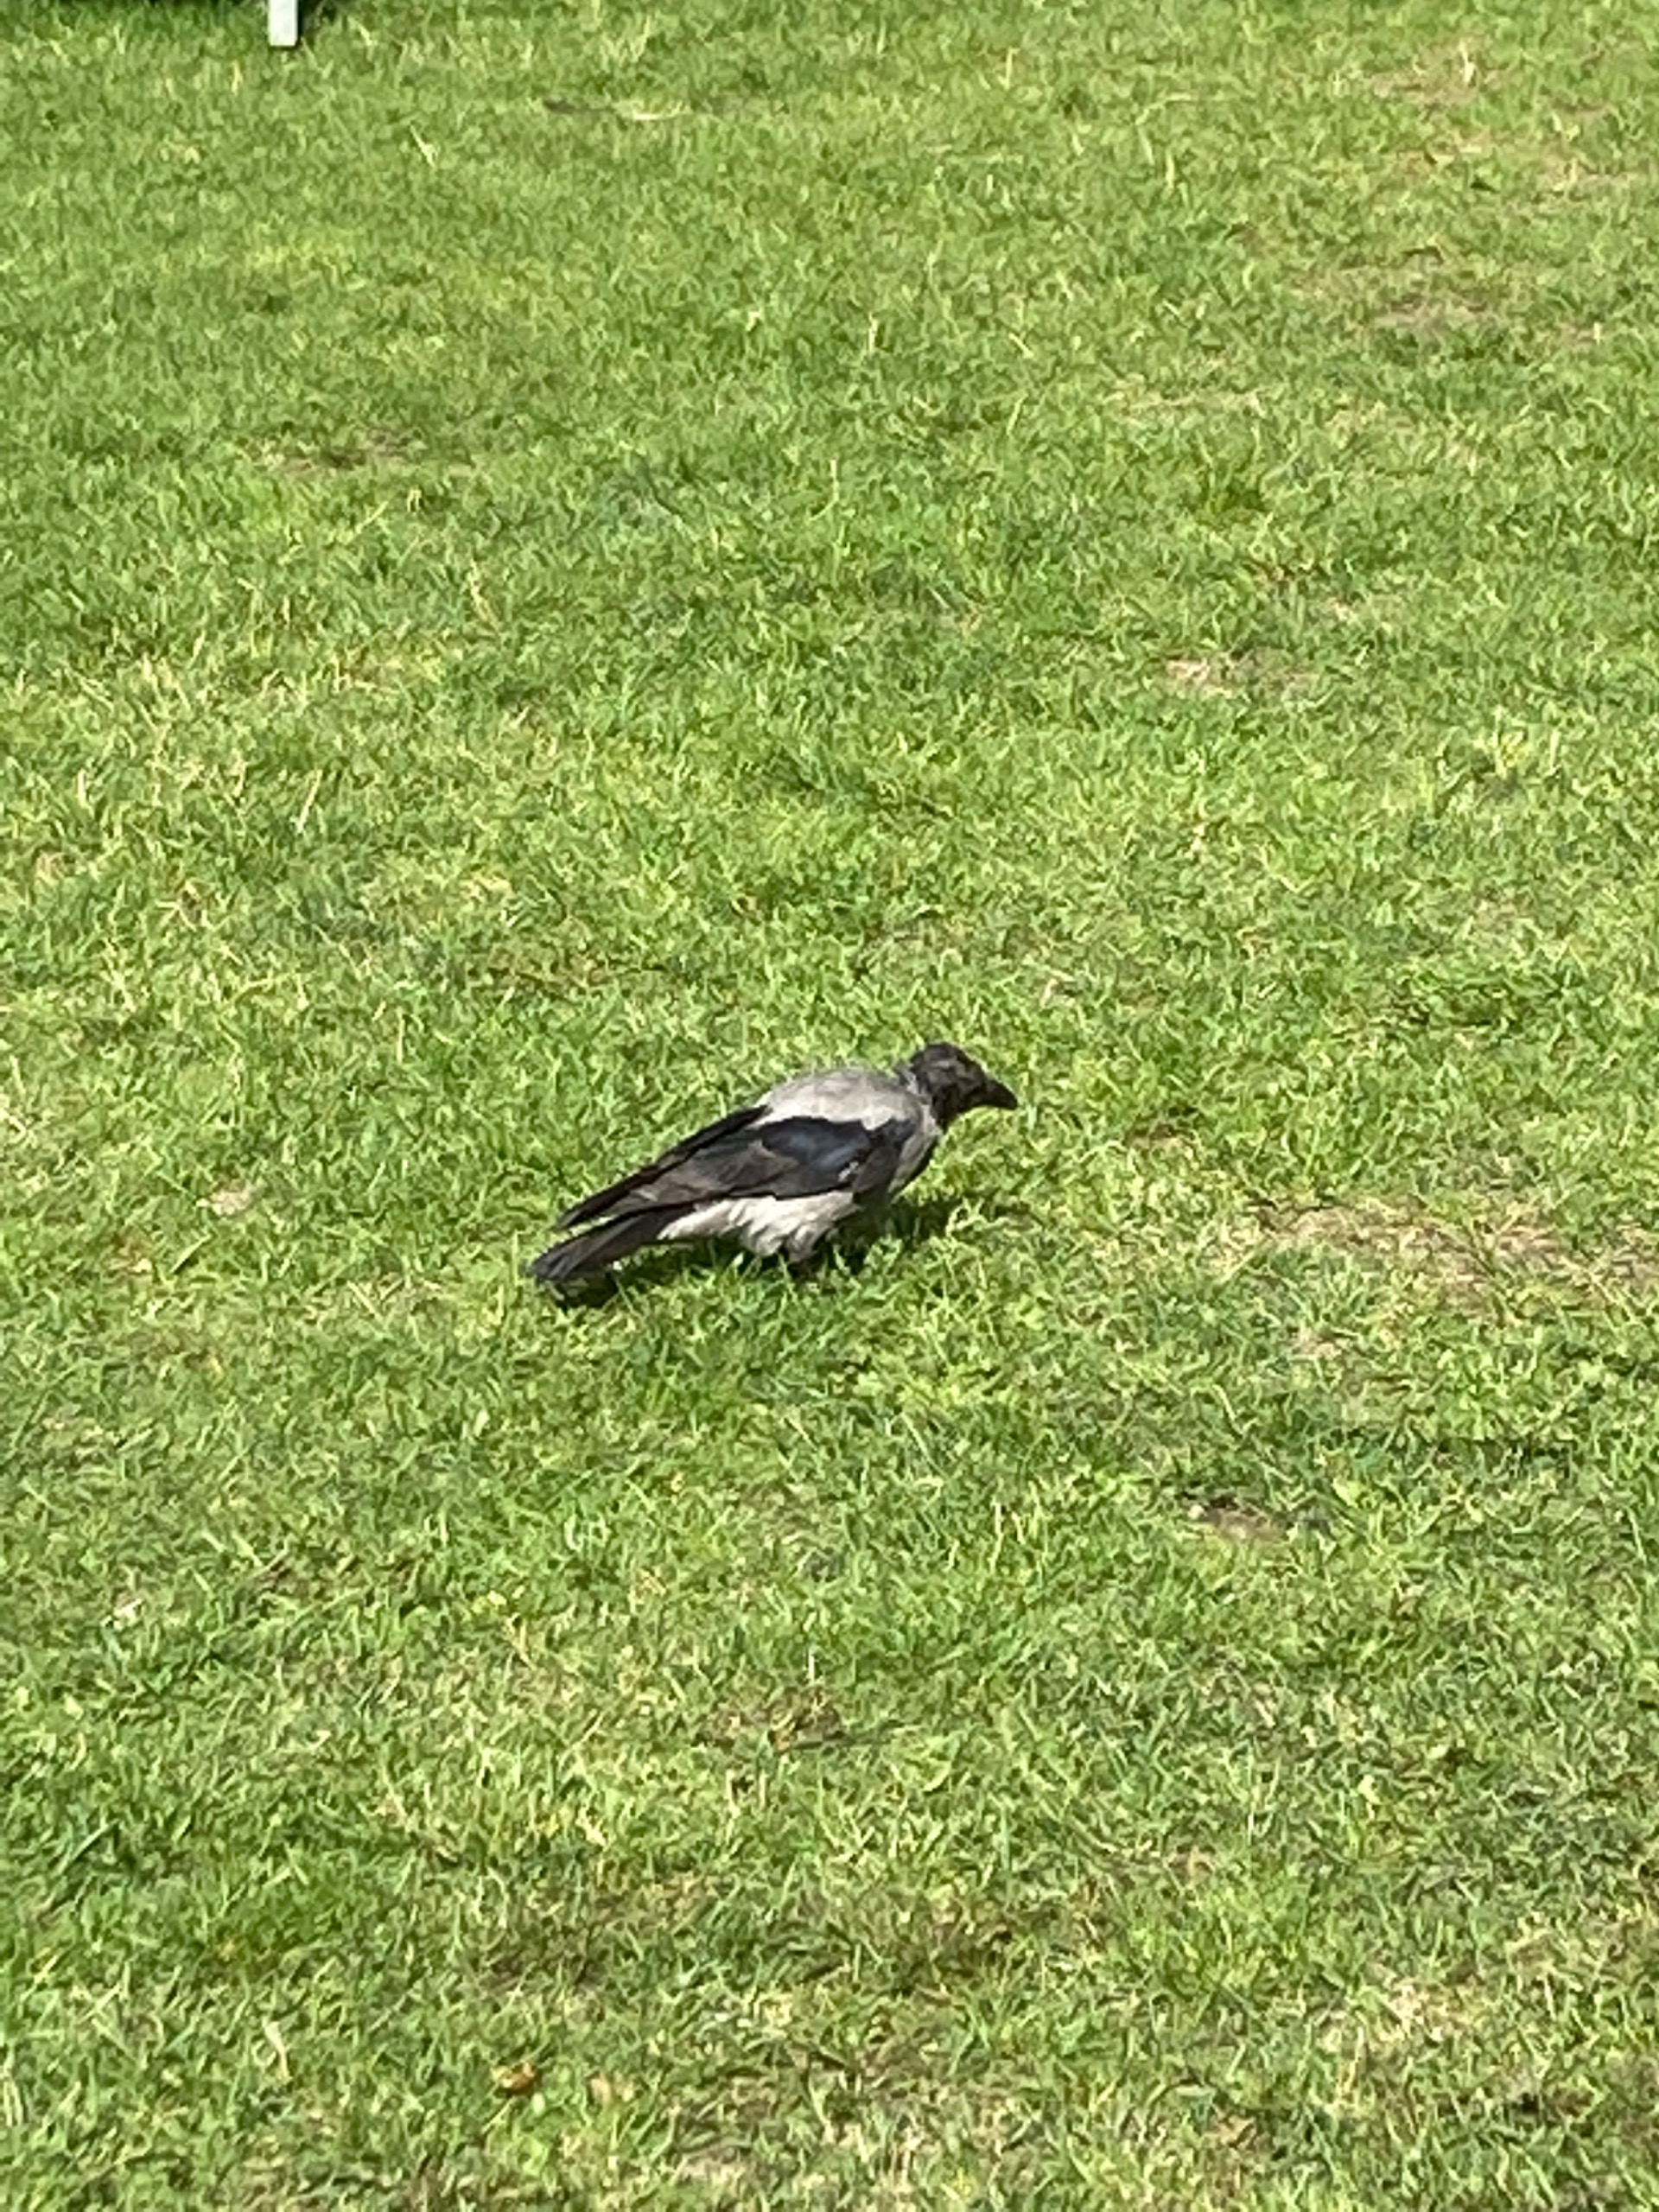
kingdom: Animalia
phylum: Chordata
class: Aves
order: Passeriformes
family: Corvidae
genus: Corvus
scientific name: Corvus cornix
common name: Gråkrage
